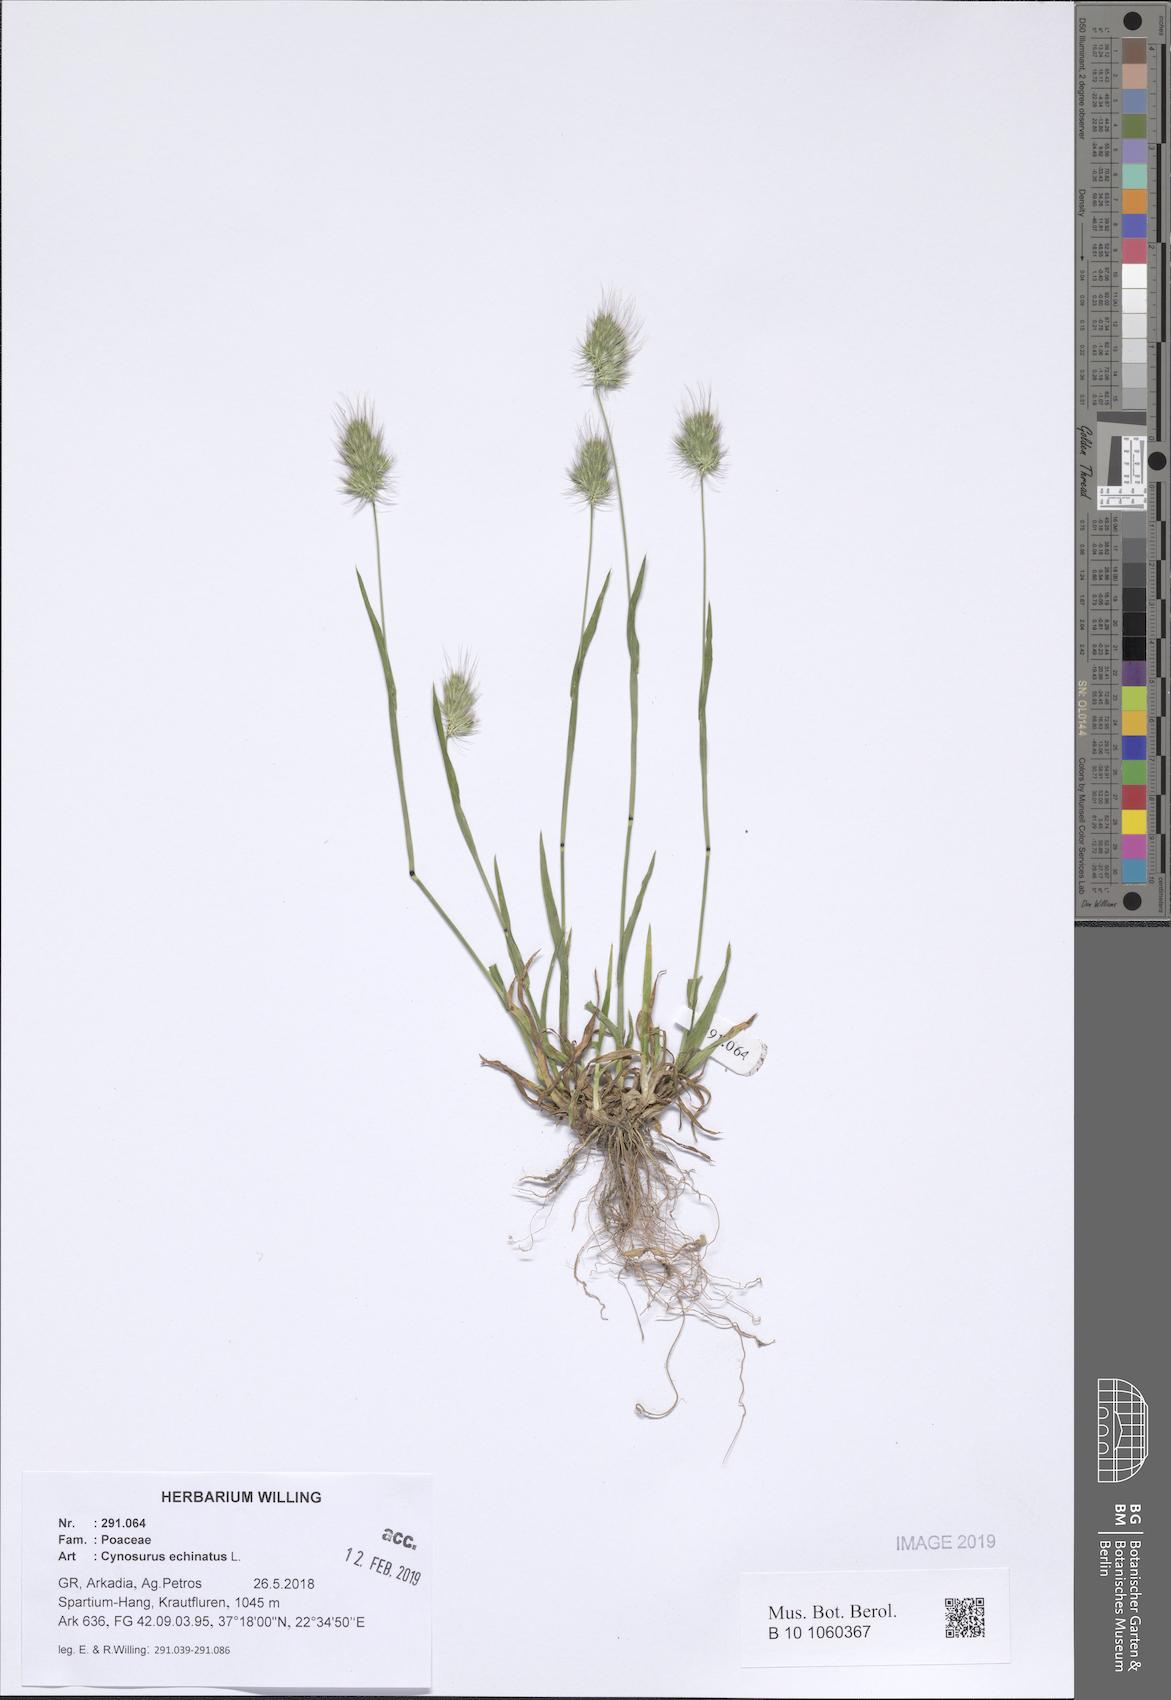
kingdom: Plantae
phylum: Tracheophyta
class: Liliopsida
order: Poales
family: Poaceae
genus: Cynosurus
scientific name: Cynosurus echinatus
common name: Rough dog's-tail
